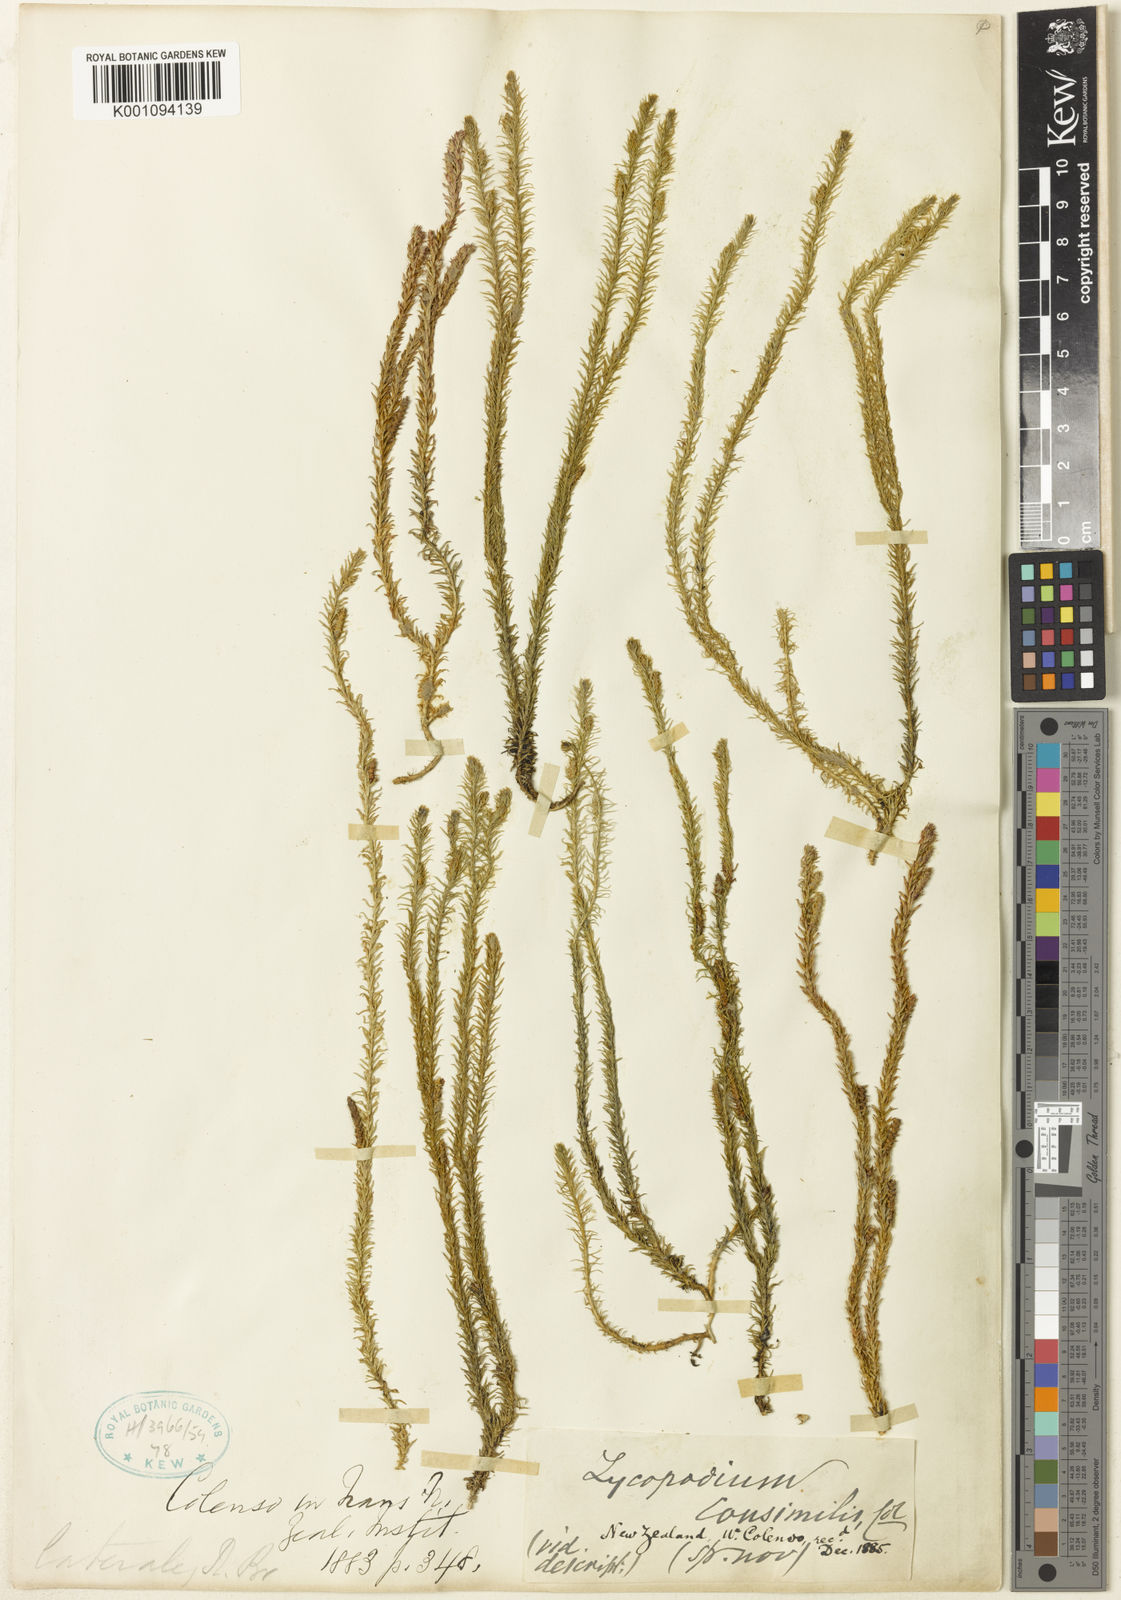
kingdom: Plantae
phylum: Tracheophyta
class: Lycopodiopsida
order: Lycopodiales
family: Lycopodiaceae
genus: Lateristachys
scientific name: Lateristachys lateralis
